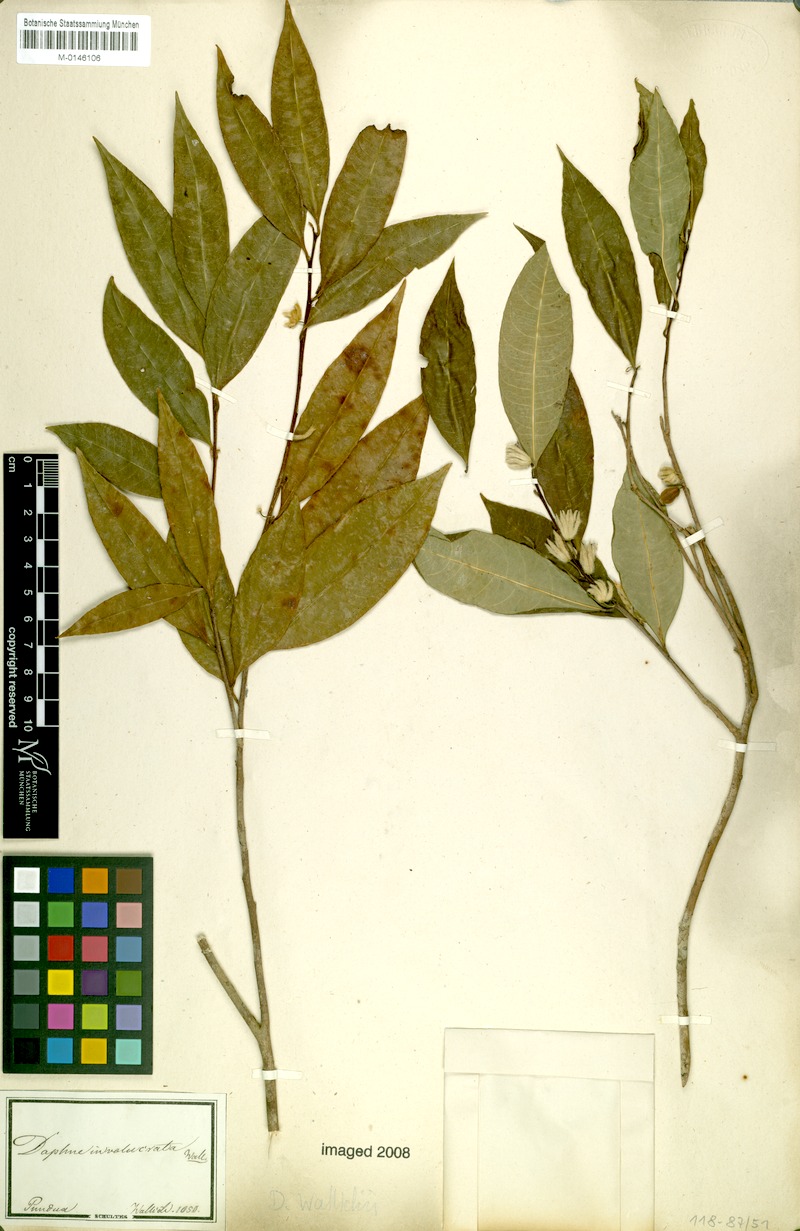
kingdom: Plantae
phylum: Tracheophyta
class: Magnoliopsida
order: Malvales
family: Thymelaeaceae
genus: Daphne
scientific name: Daphne composita
